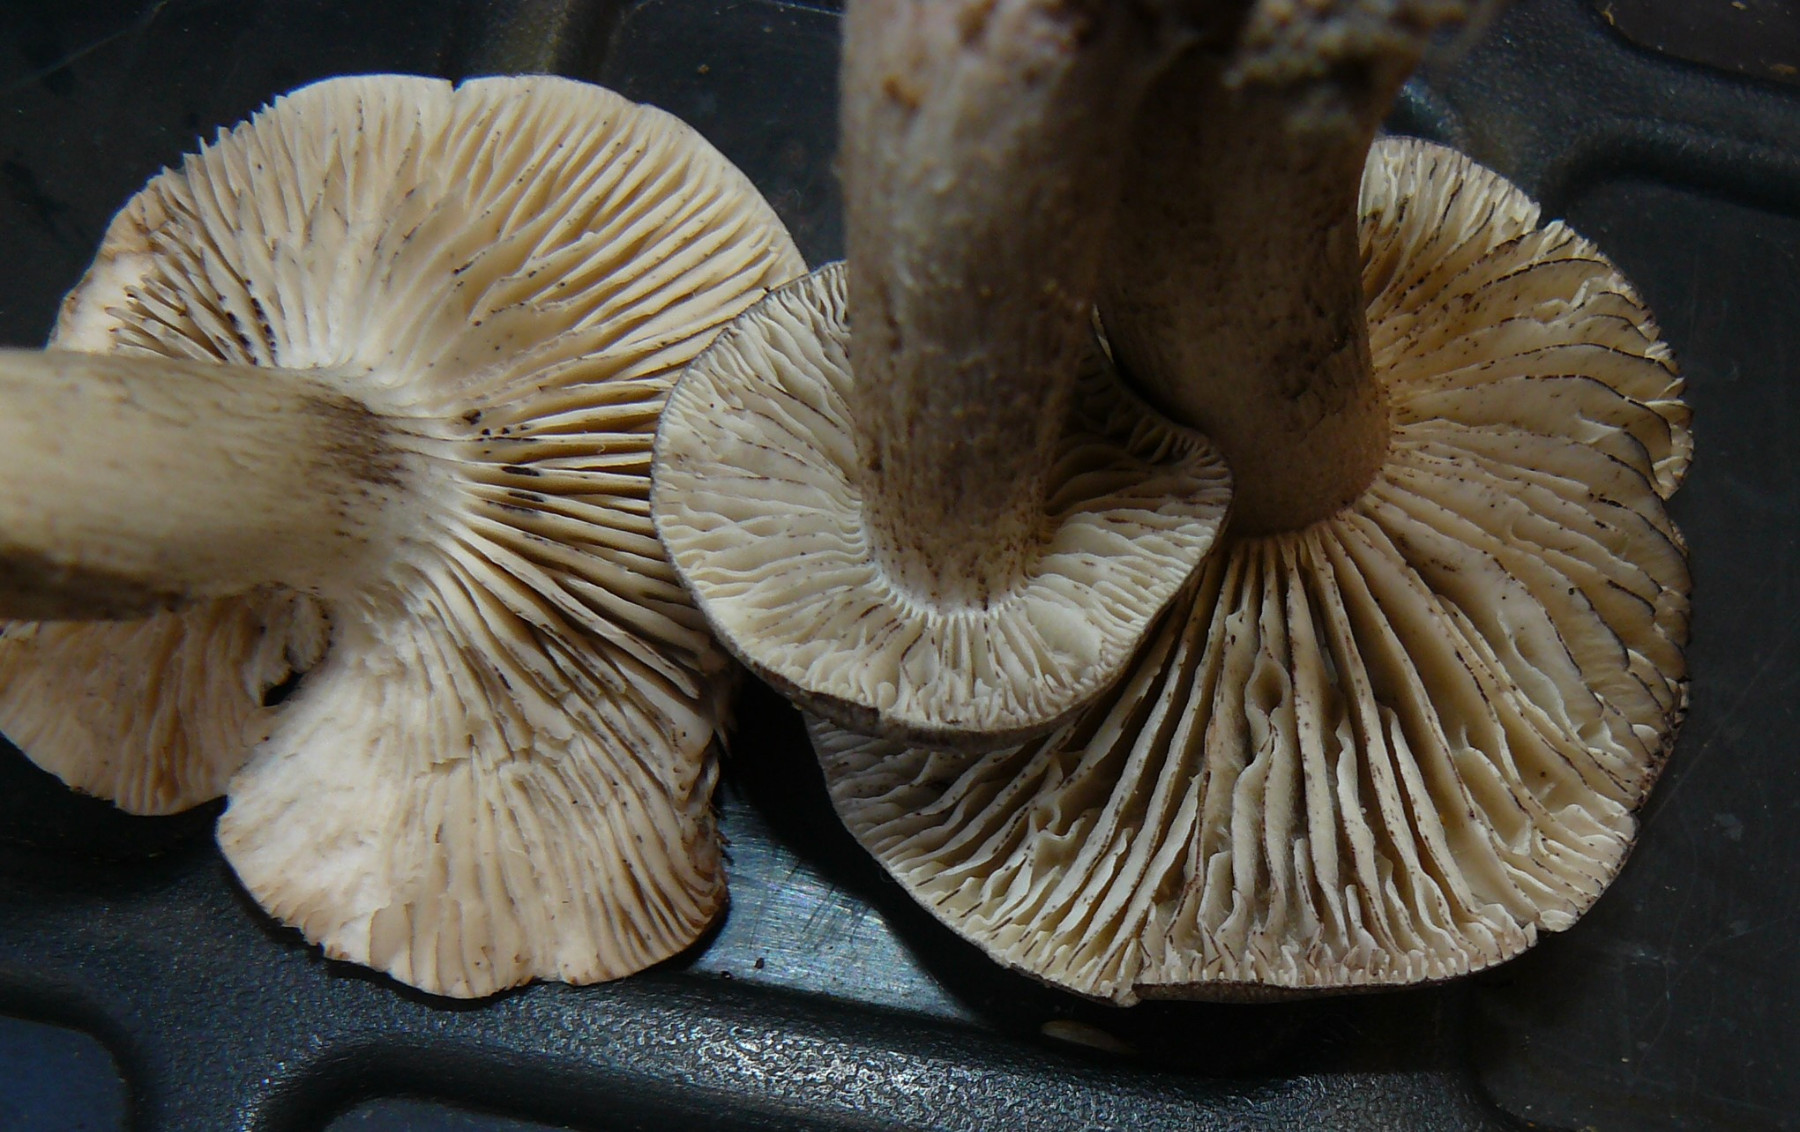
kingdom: Fungi
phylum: Basidiomycota
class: Agaricomycetes
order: Agaricales
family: Tricholomataceae
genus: Tricholoma
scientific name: Tricholoma sciodes
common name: stribet ridderhat
